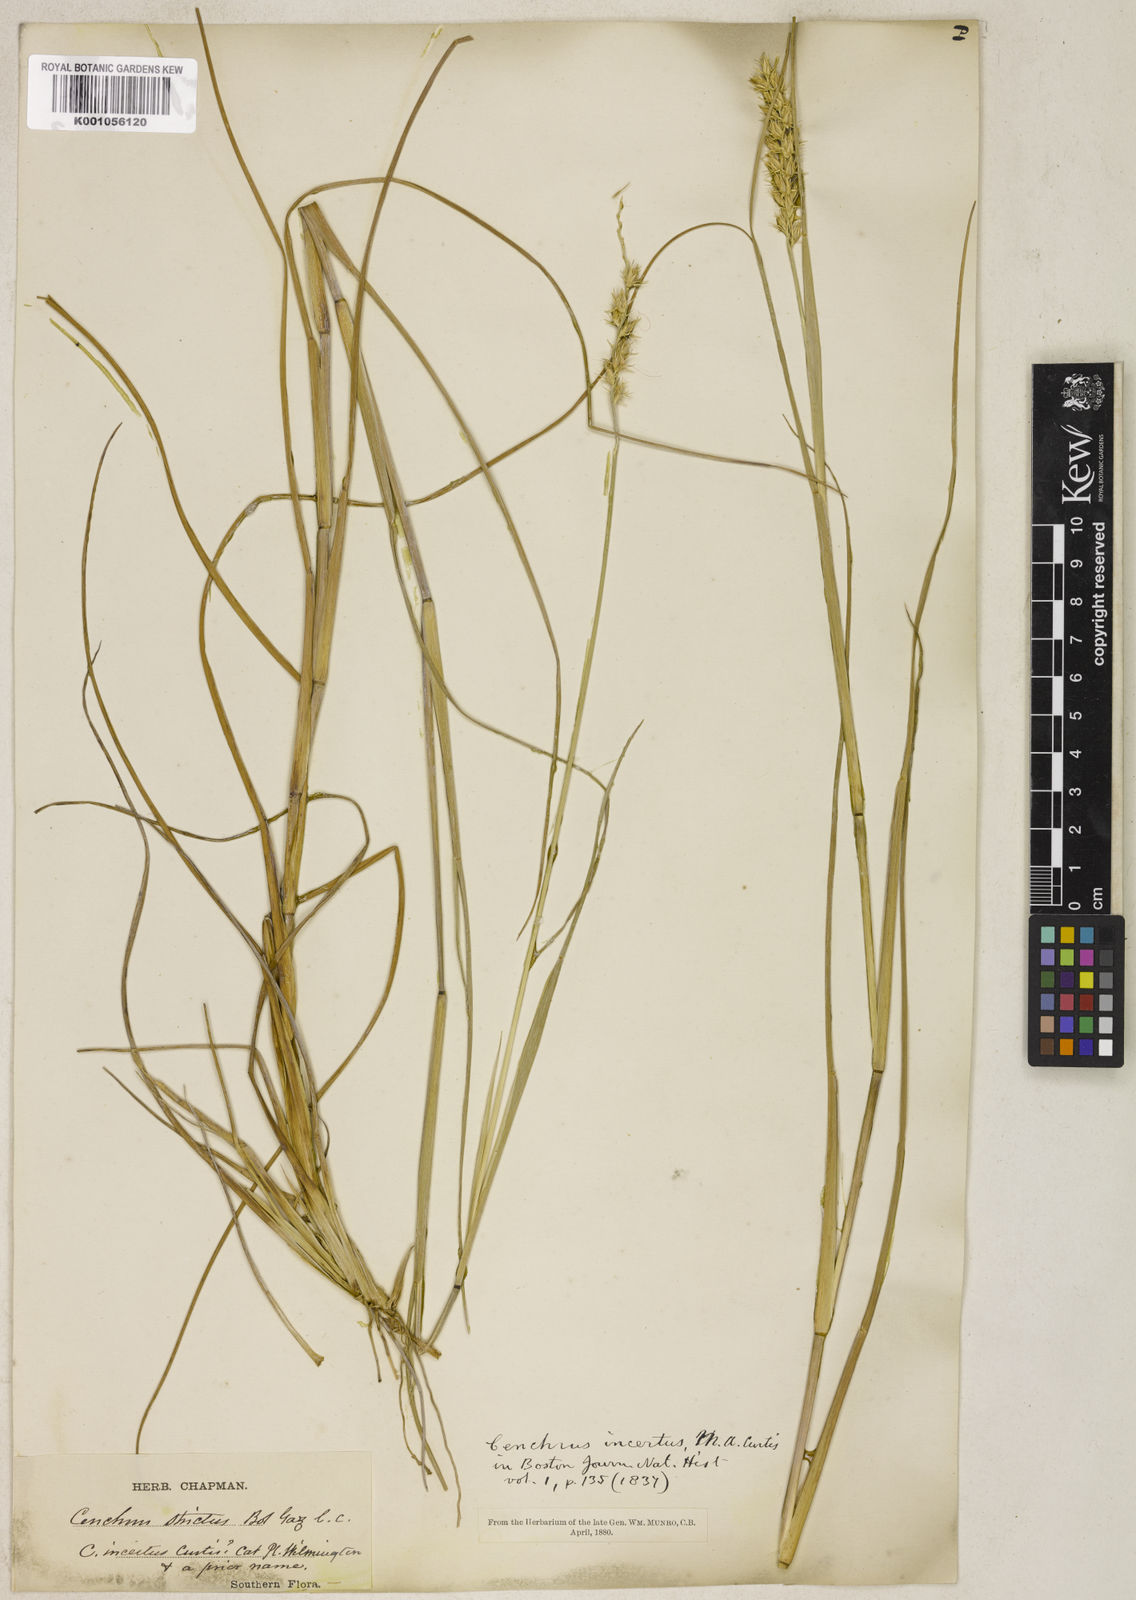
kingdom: Plantae
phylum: Tracheophyta
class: Liliopsida
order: Poales
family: Poaceae
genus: Cenchrus
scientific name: Cenchrus spinifex
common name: Coast sandbur
